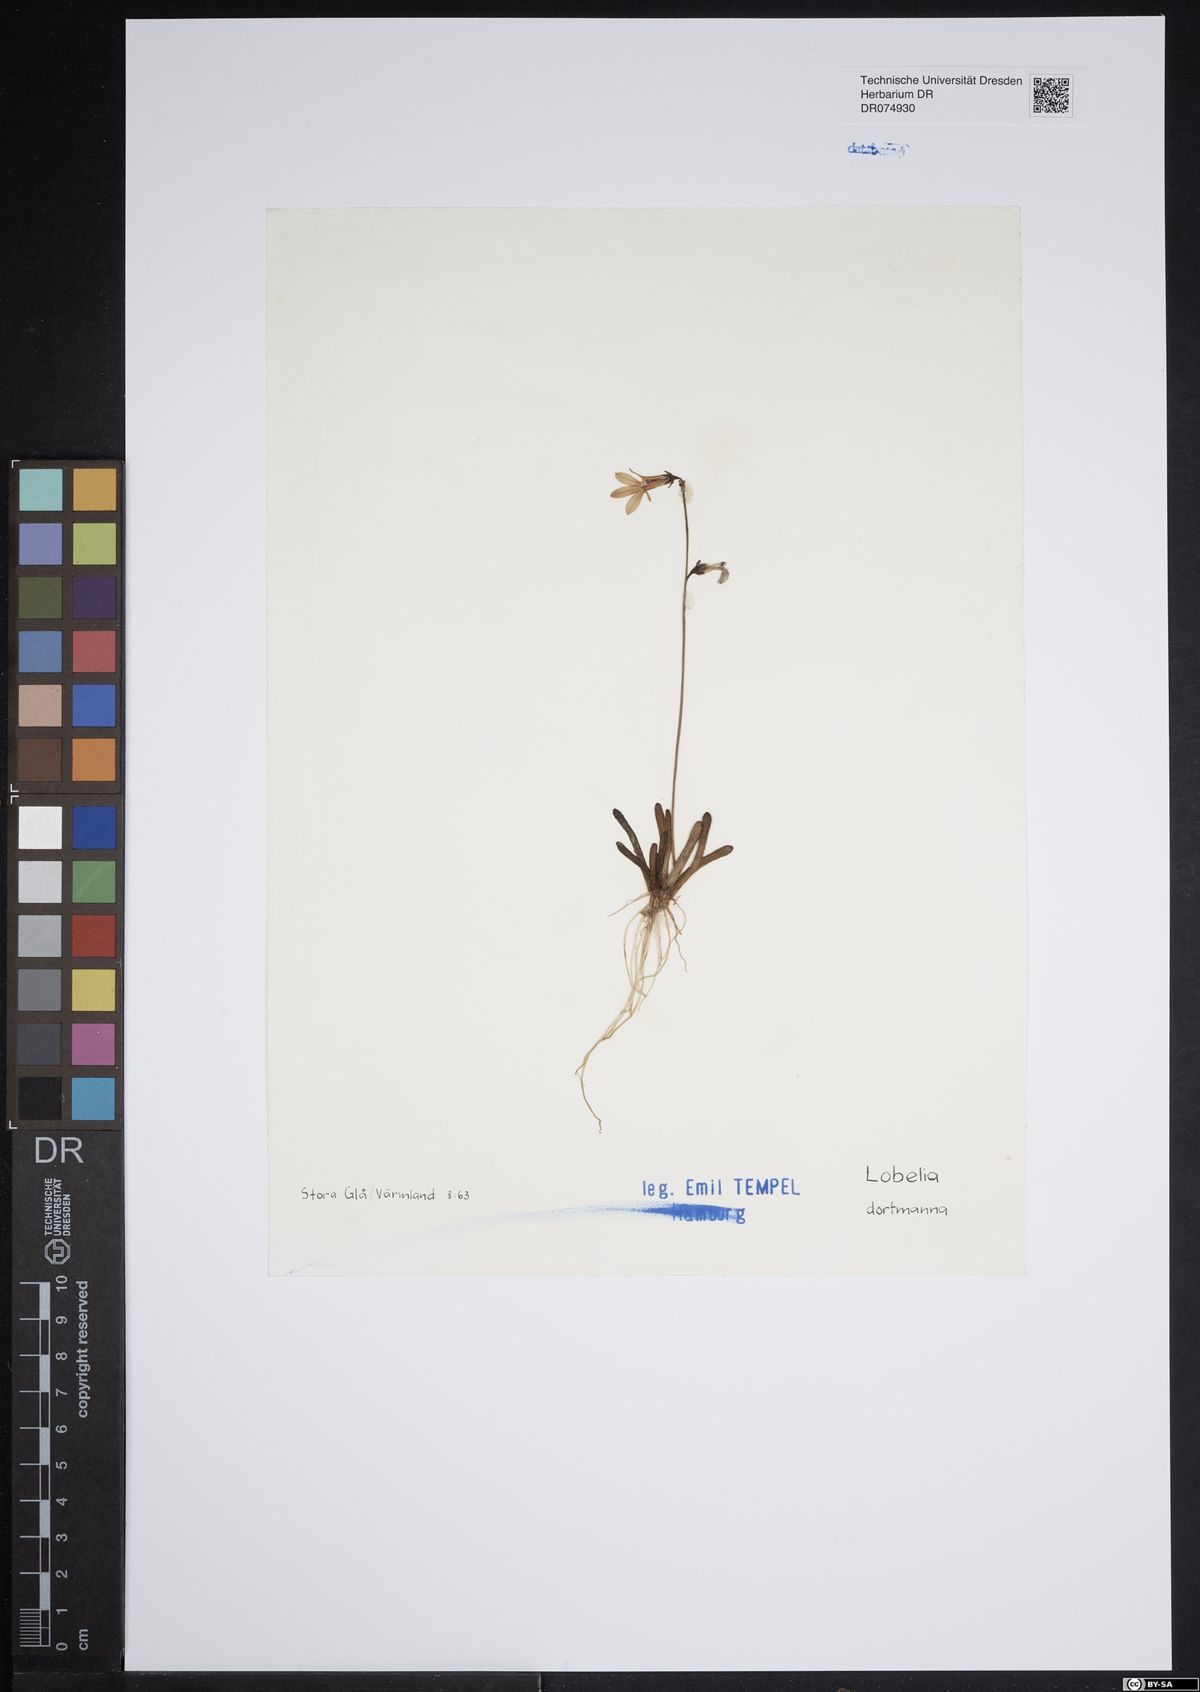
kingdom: Plantae
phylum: Tracheophyta
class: Magnoliopsida
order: Asterales
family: Campanulaceae
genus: Lobelia
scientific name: Lobelia dortmanna
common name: Water lobelia
